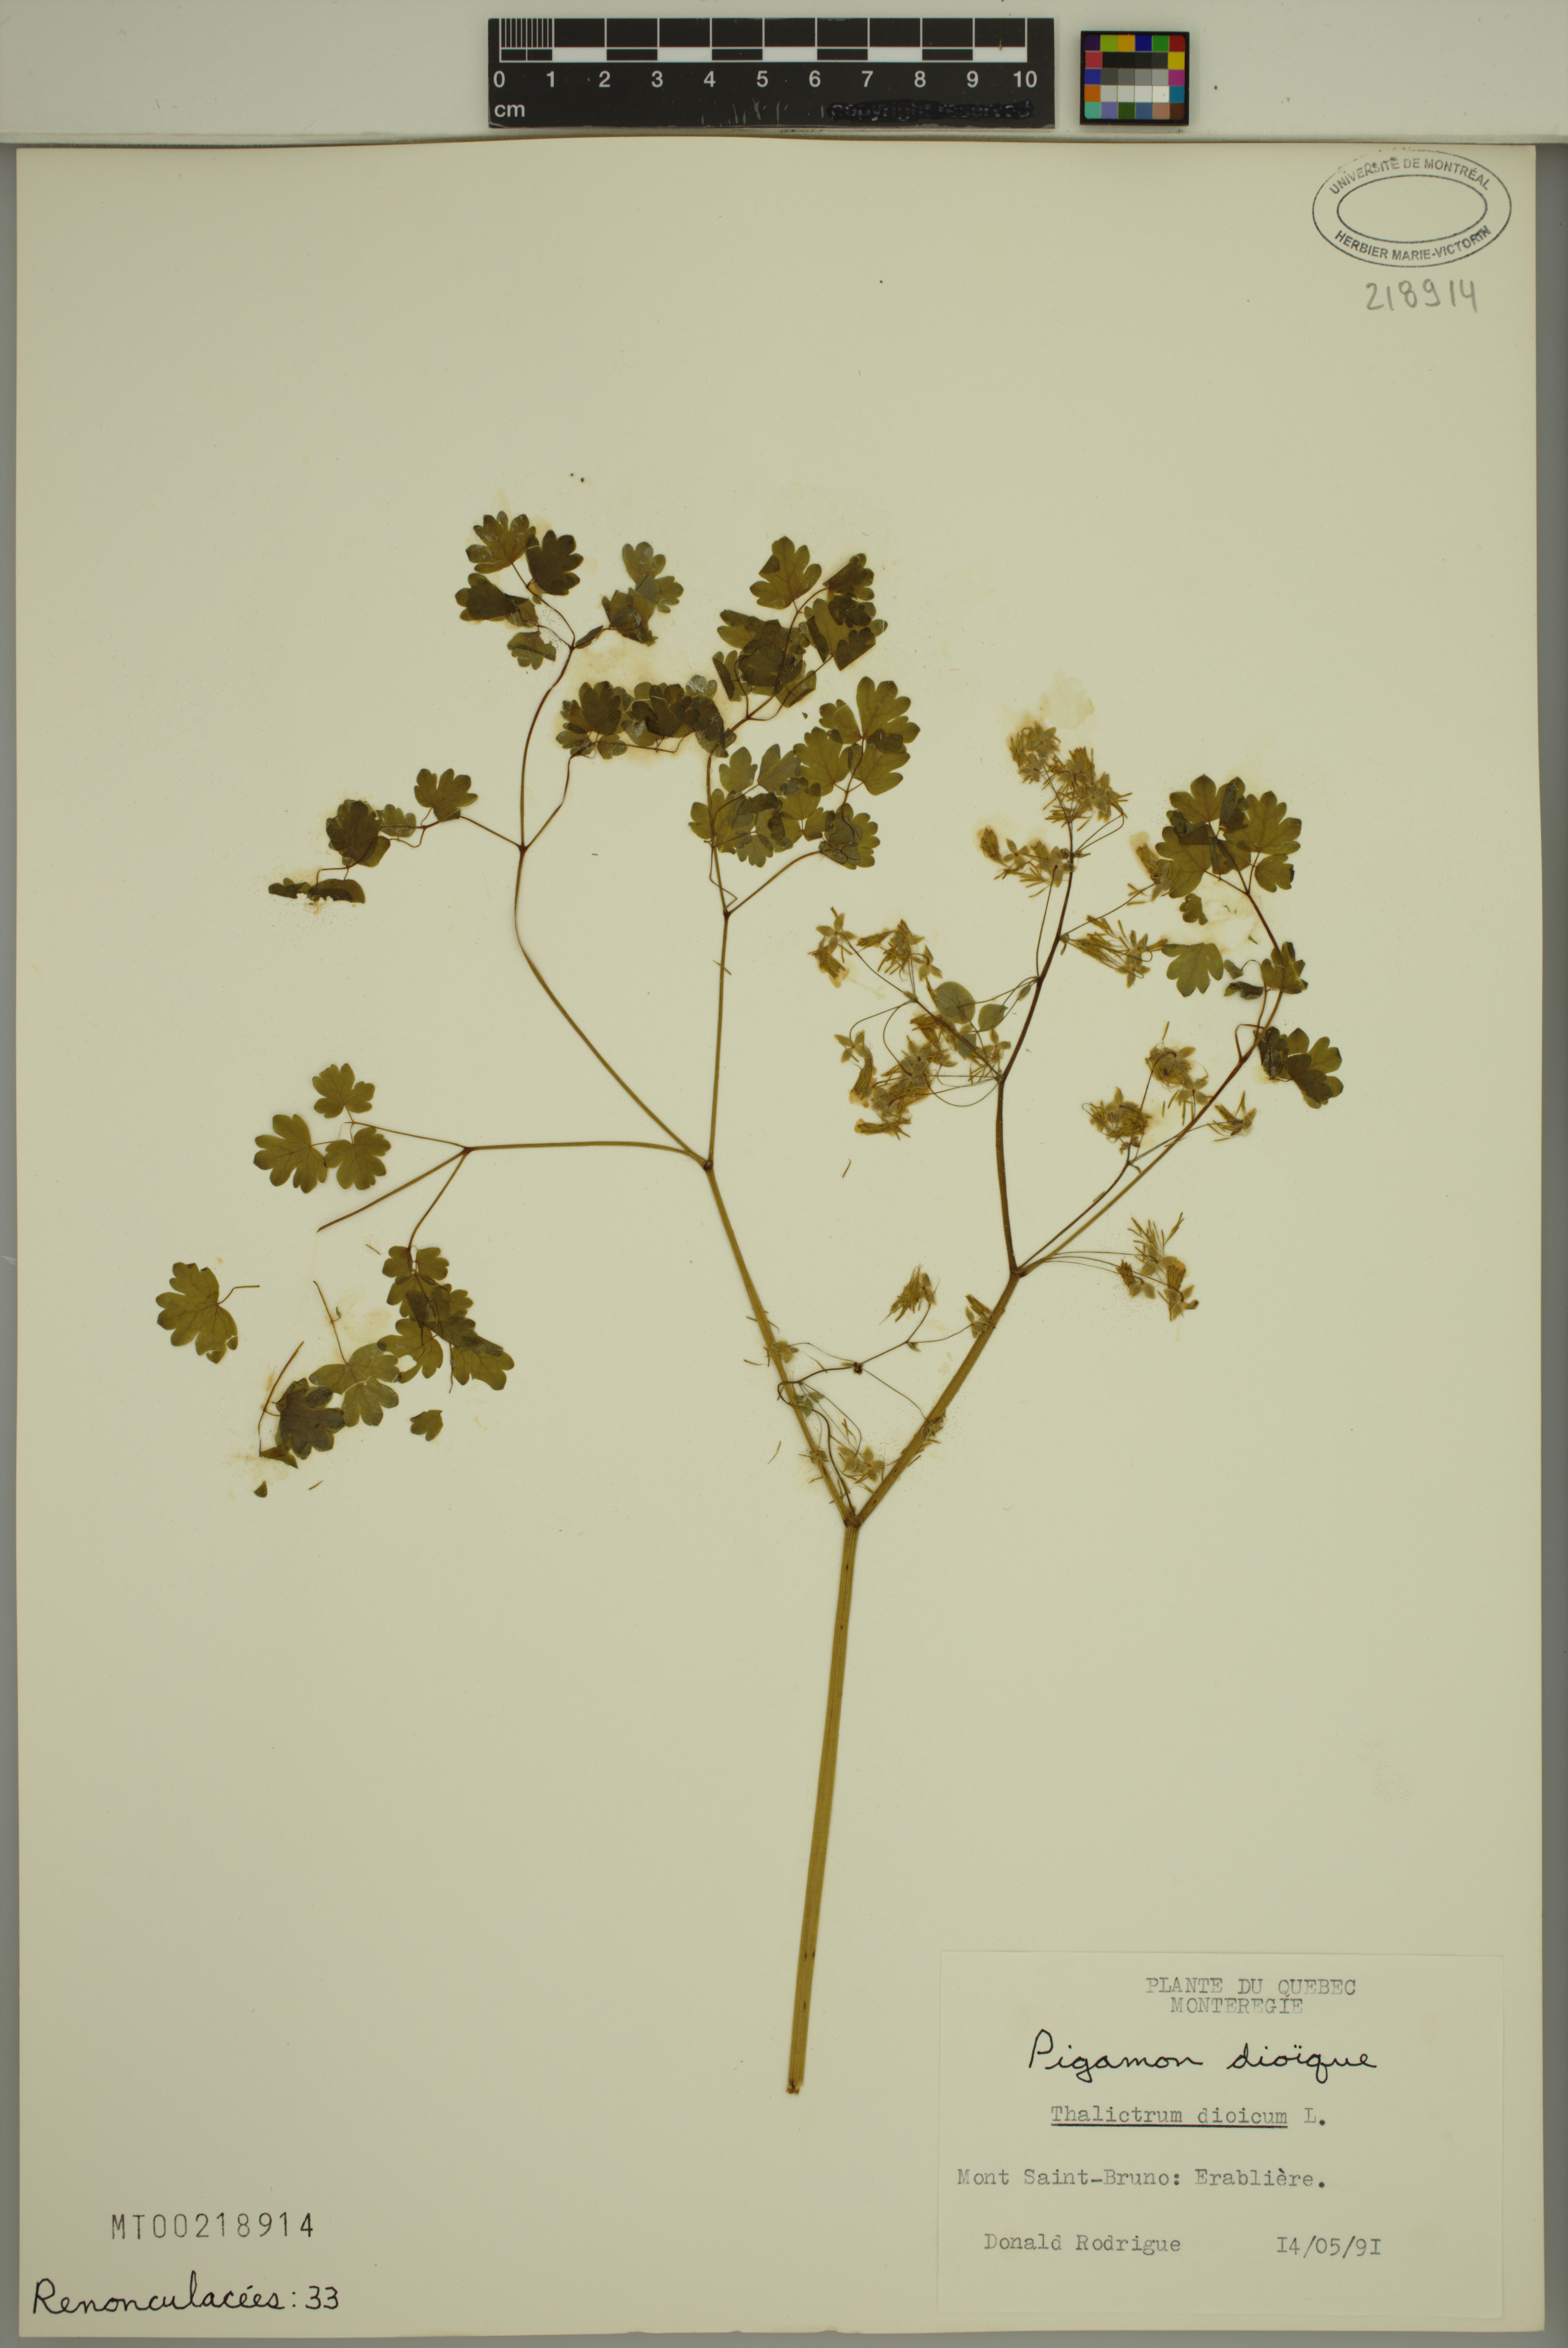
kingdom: Plantae
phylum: Tracheophyta
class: Magnoliopsida
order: Ranunculales
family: Ranunculaceae
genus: Thalictrum
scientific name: Thalictrum dioicum
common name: Early meadow-rue
